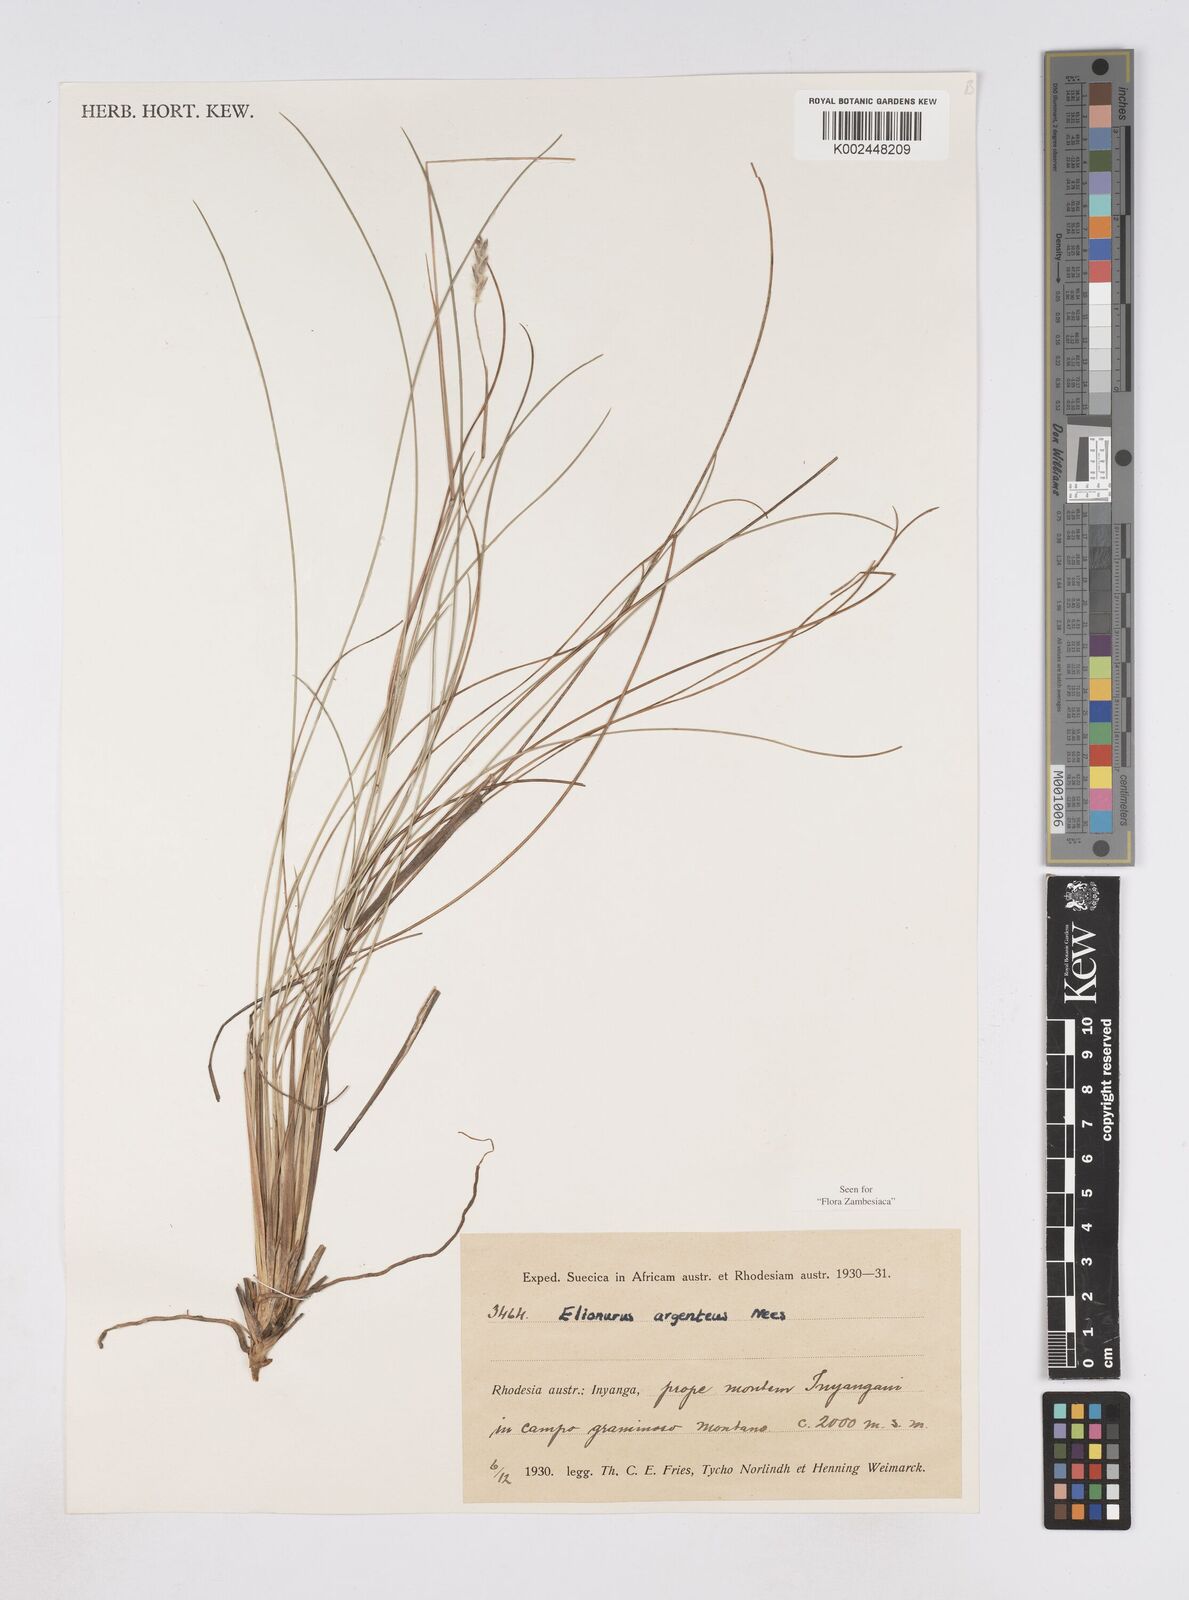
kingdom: Plantae
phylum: Tracheophyta
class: Liliopsida
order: Poales
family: Poaceae
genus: Elionurus
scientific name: Elionurus muticus
